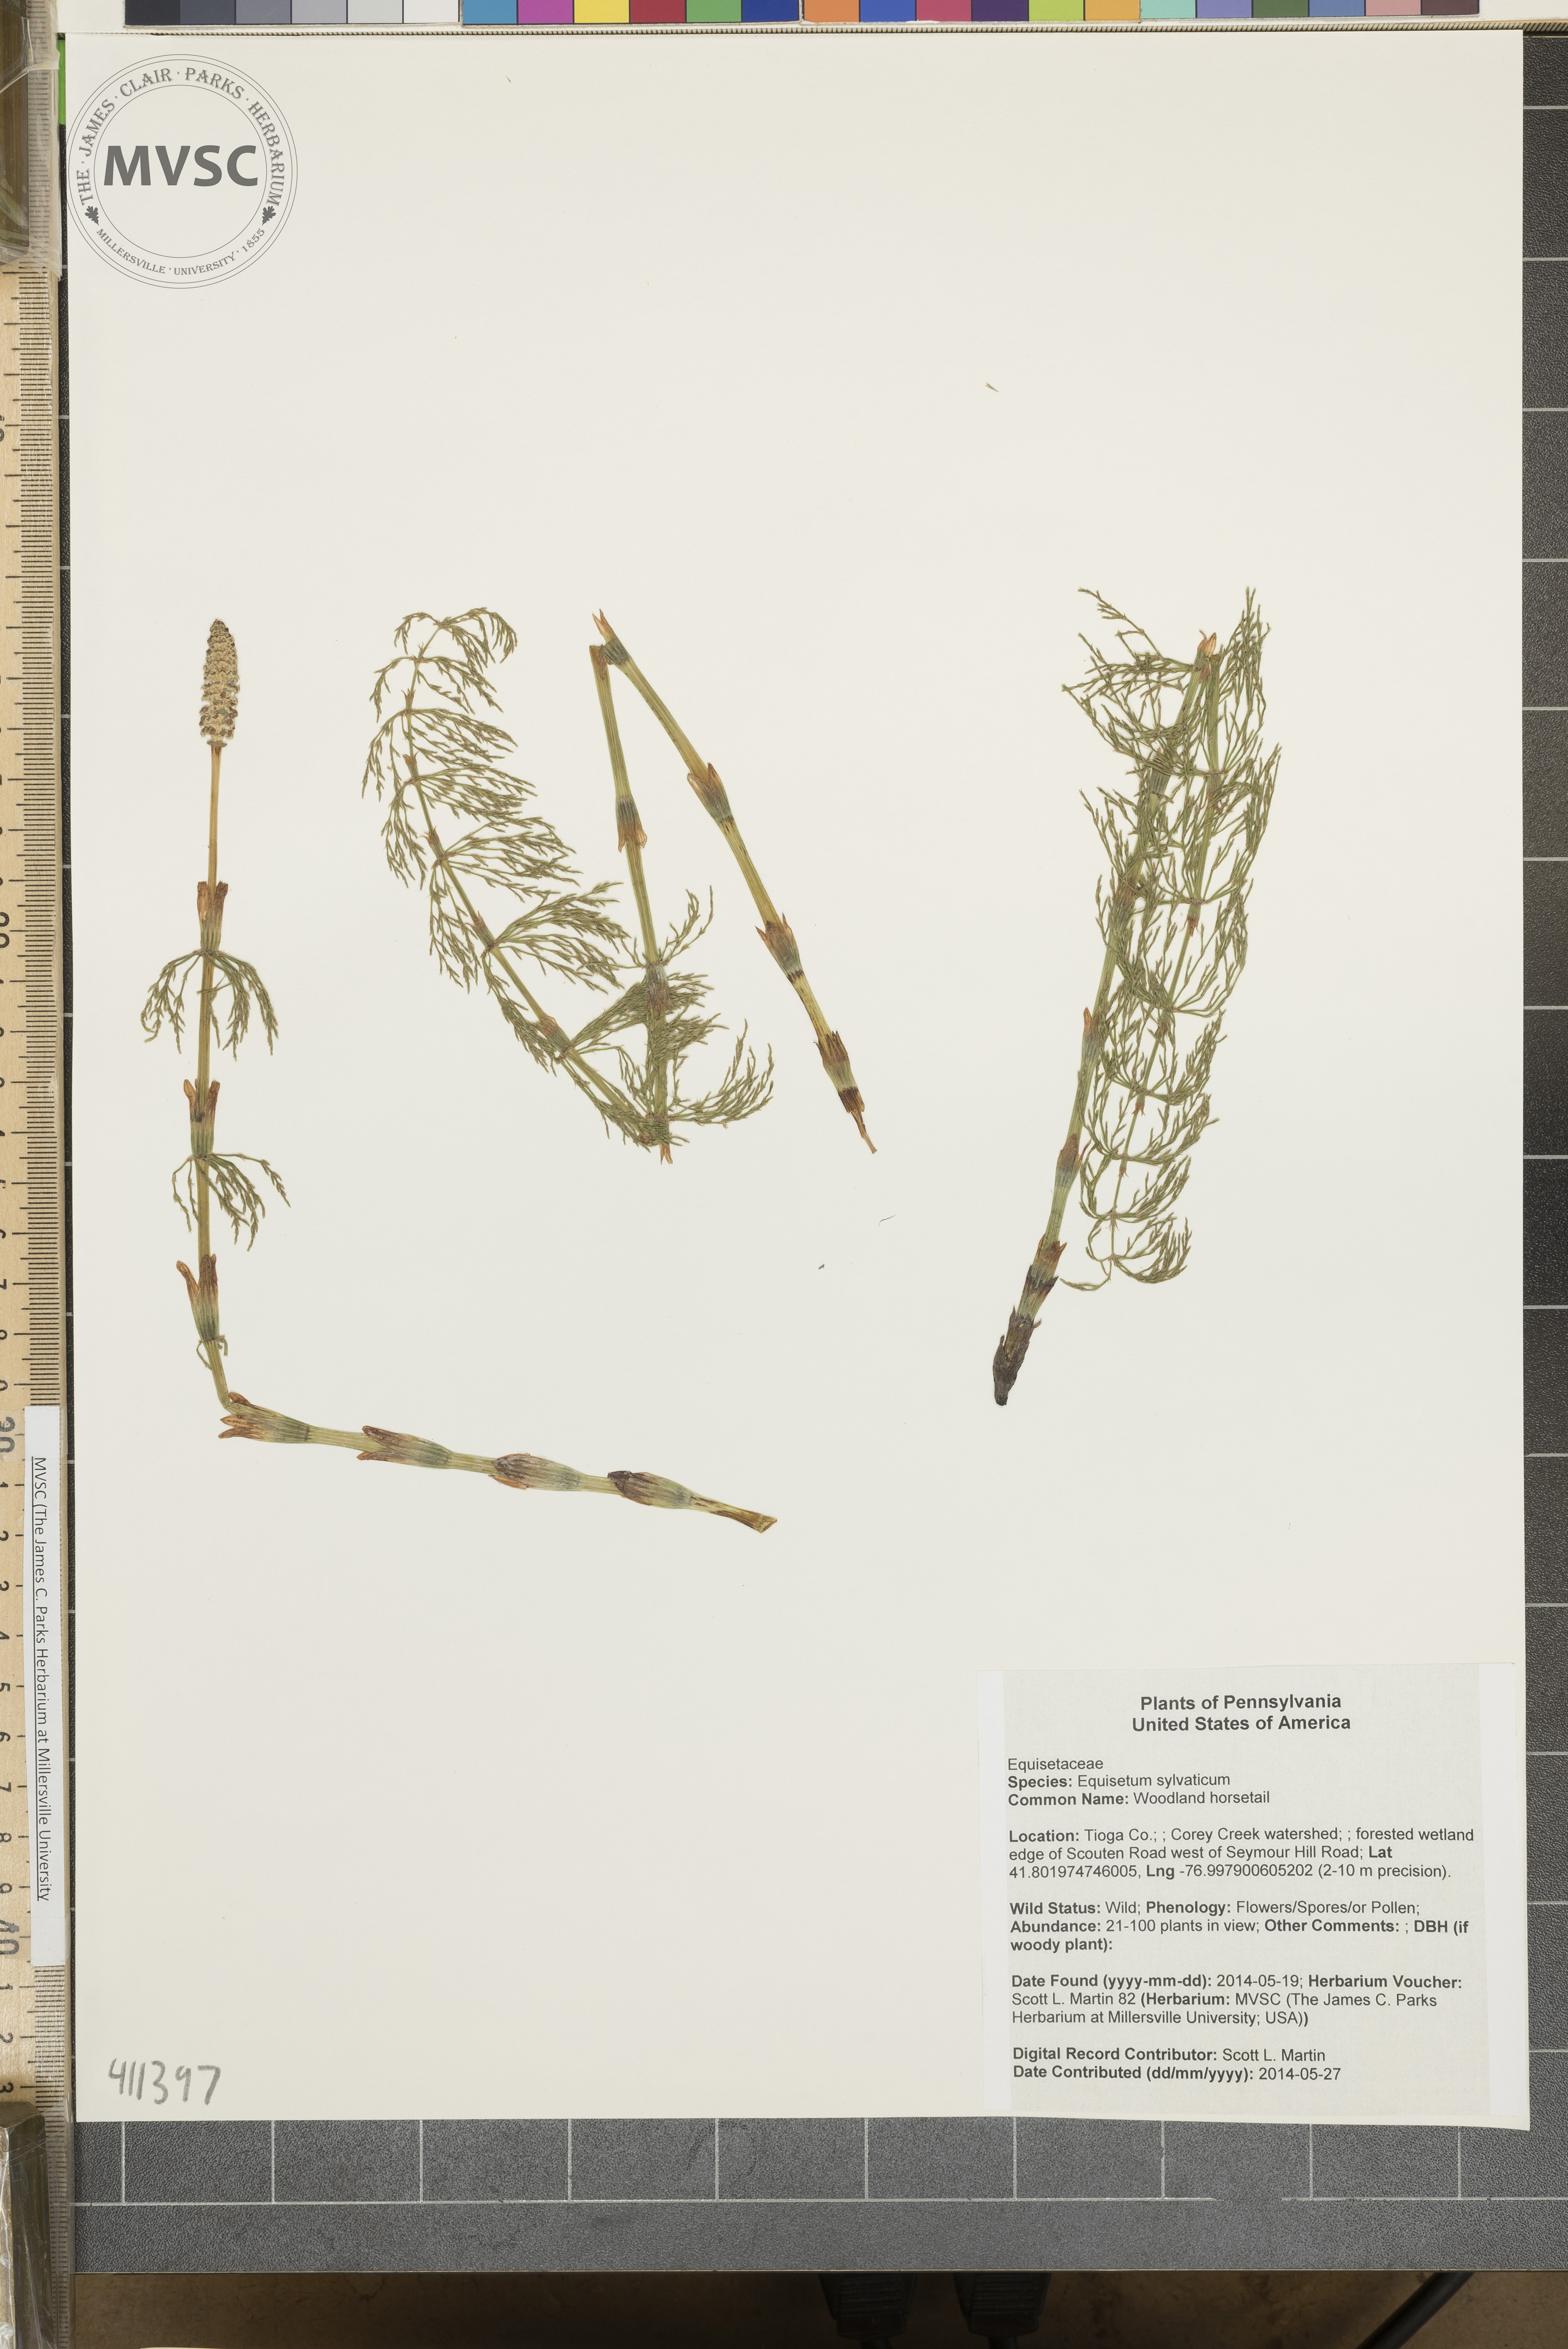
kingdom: Plantae
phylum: Tracheophyta
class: Polypodiopsida
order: Equisetales
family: Equisetaceae
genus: Equisetum
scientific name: Equisetum sylvaticum
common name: Woodland horsetail
